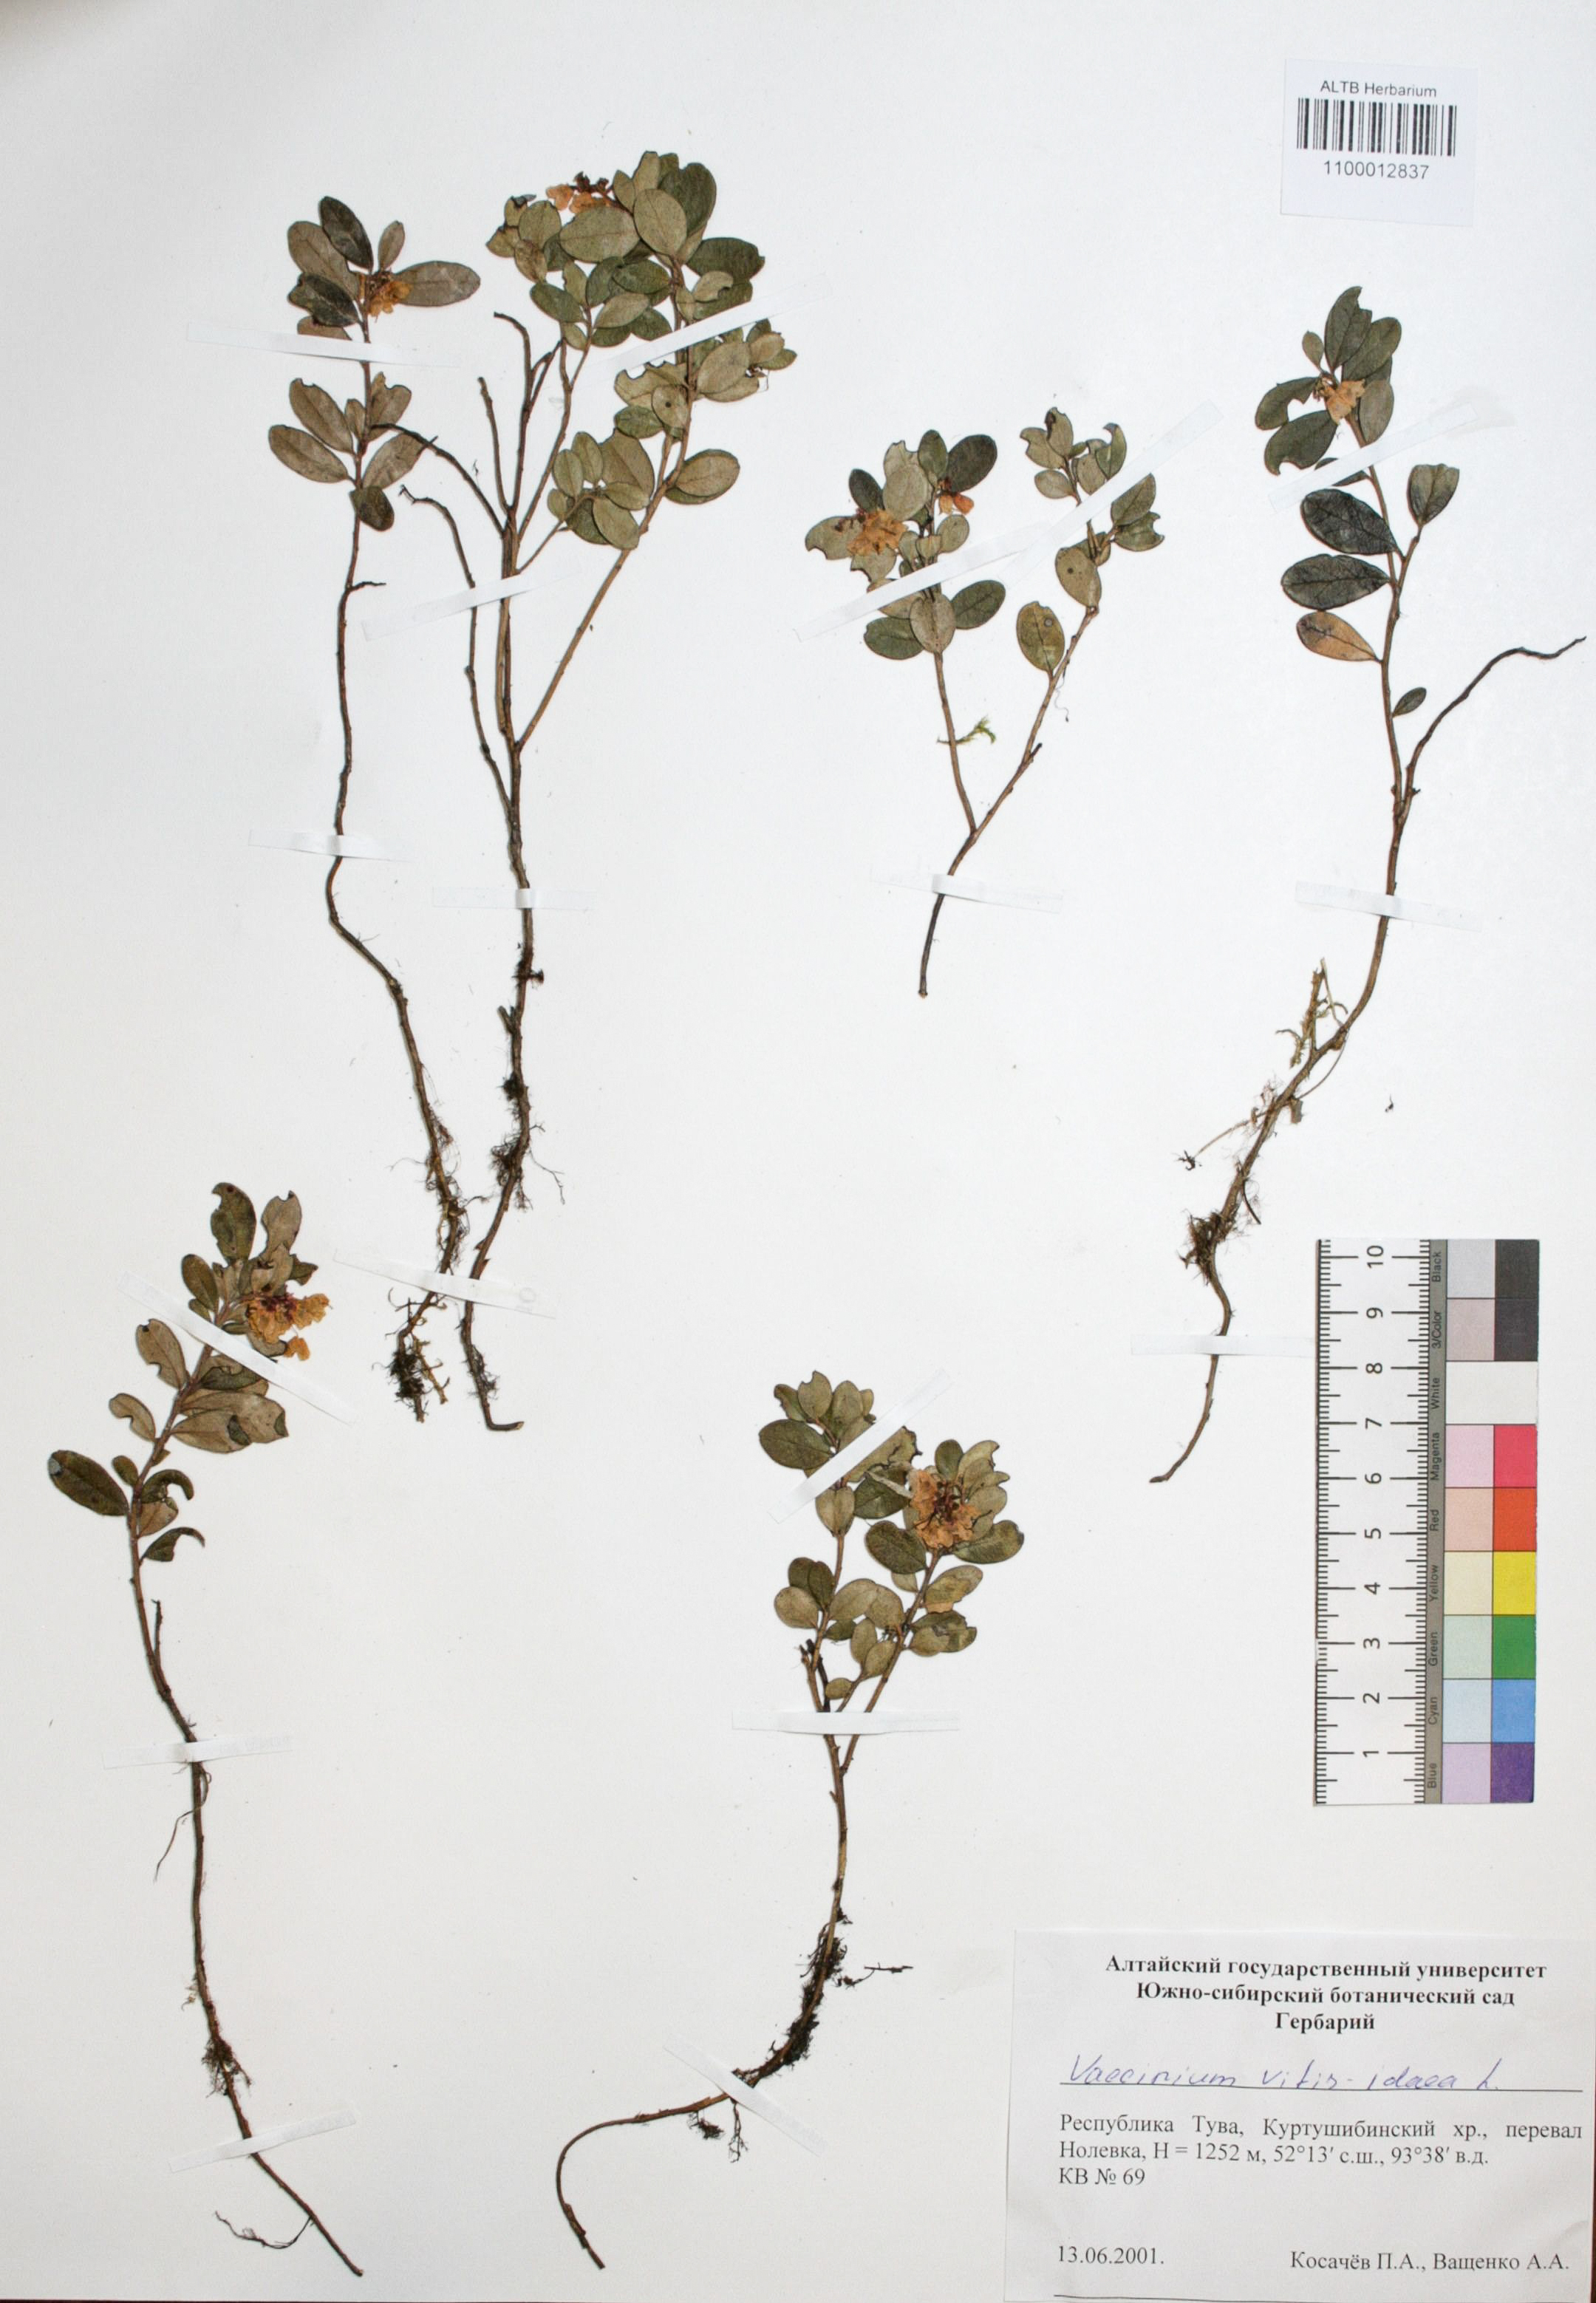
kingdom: Plantae
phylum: Tracheophyta
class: Magnoliopsida
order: Ericales
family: Ericaceae
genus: Vaccinium
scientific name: Vaccinium vitis-idaea
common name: Cowberry
